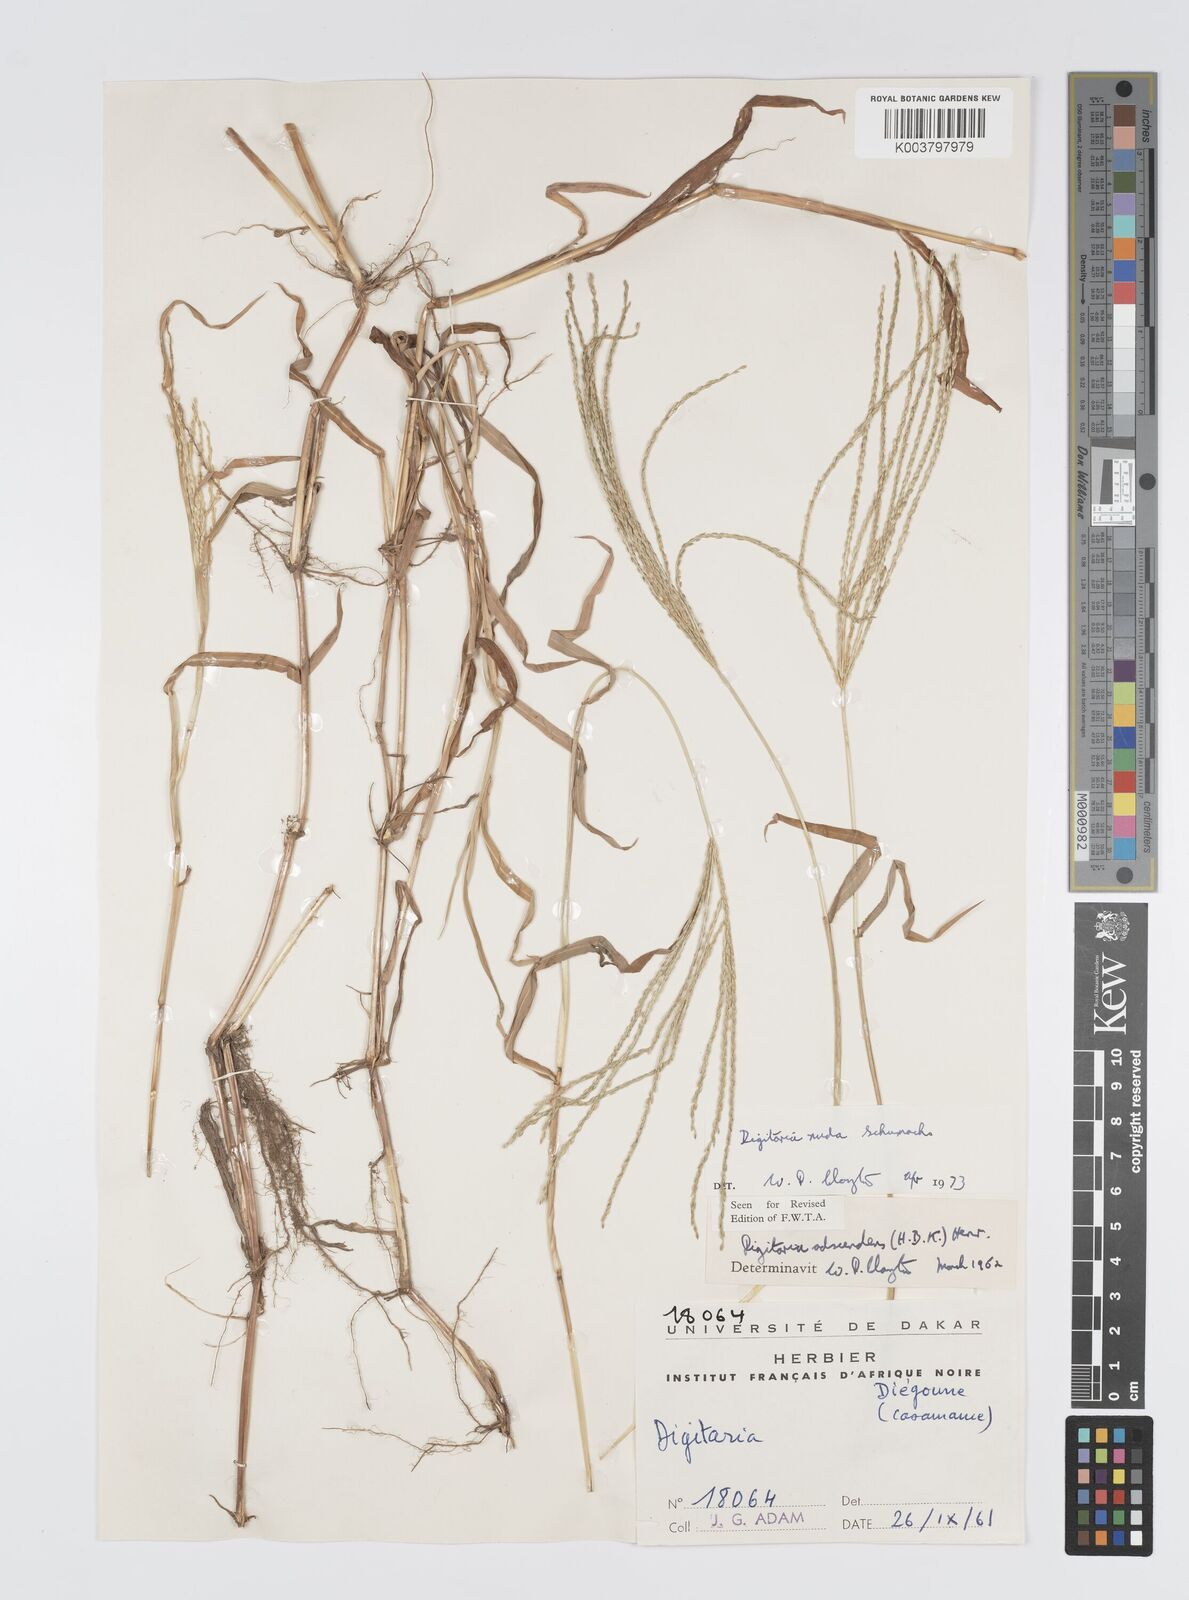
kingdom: Plantae
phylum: Tracheophyta
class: Liliopsida
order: Poales
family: Poaceae
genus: Digitaria
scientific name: Digitaria nuda
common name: Naked crabgrass
